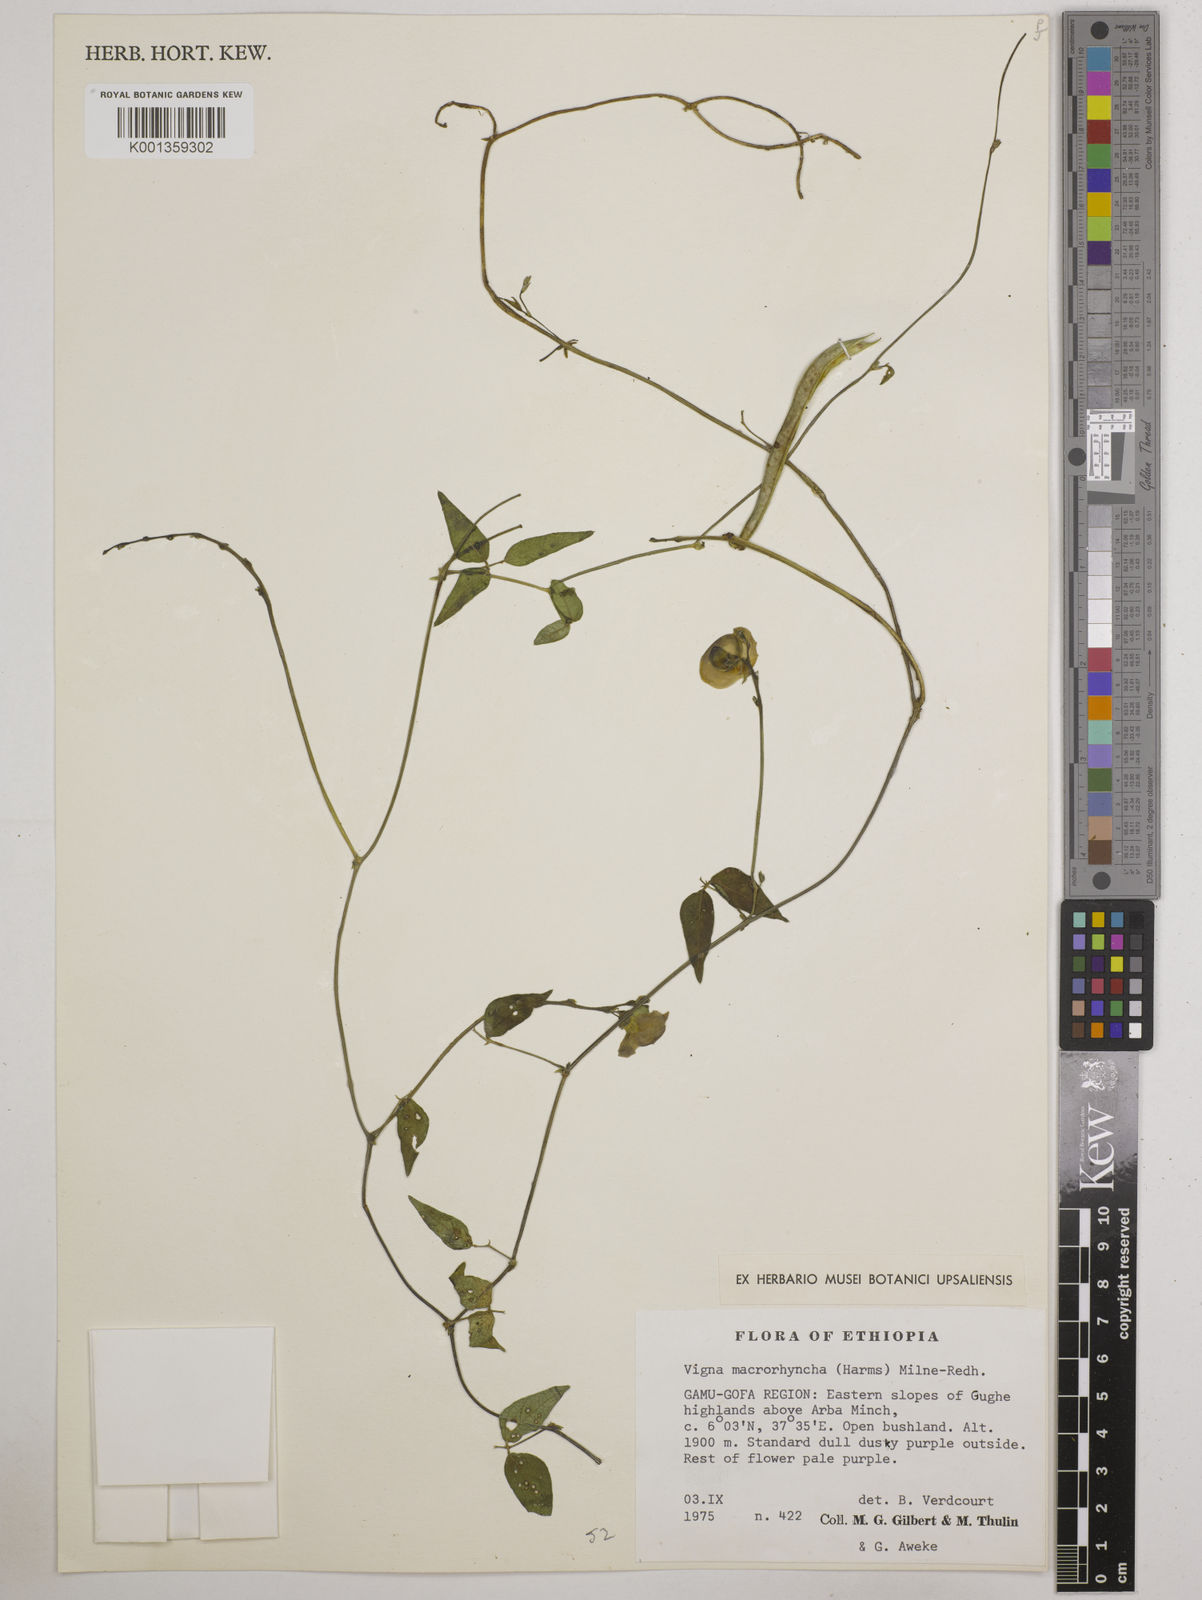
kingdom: Plantae
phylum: Tracheophyta
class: Magnoliopsida
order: Fabales
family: Fabaceae
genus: Wajira
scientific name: Wajira grahamiana
